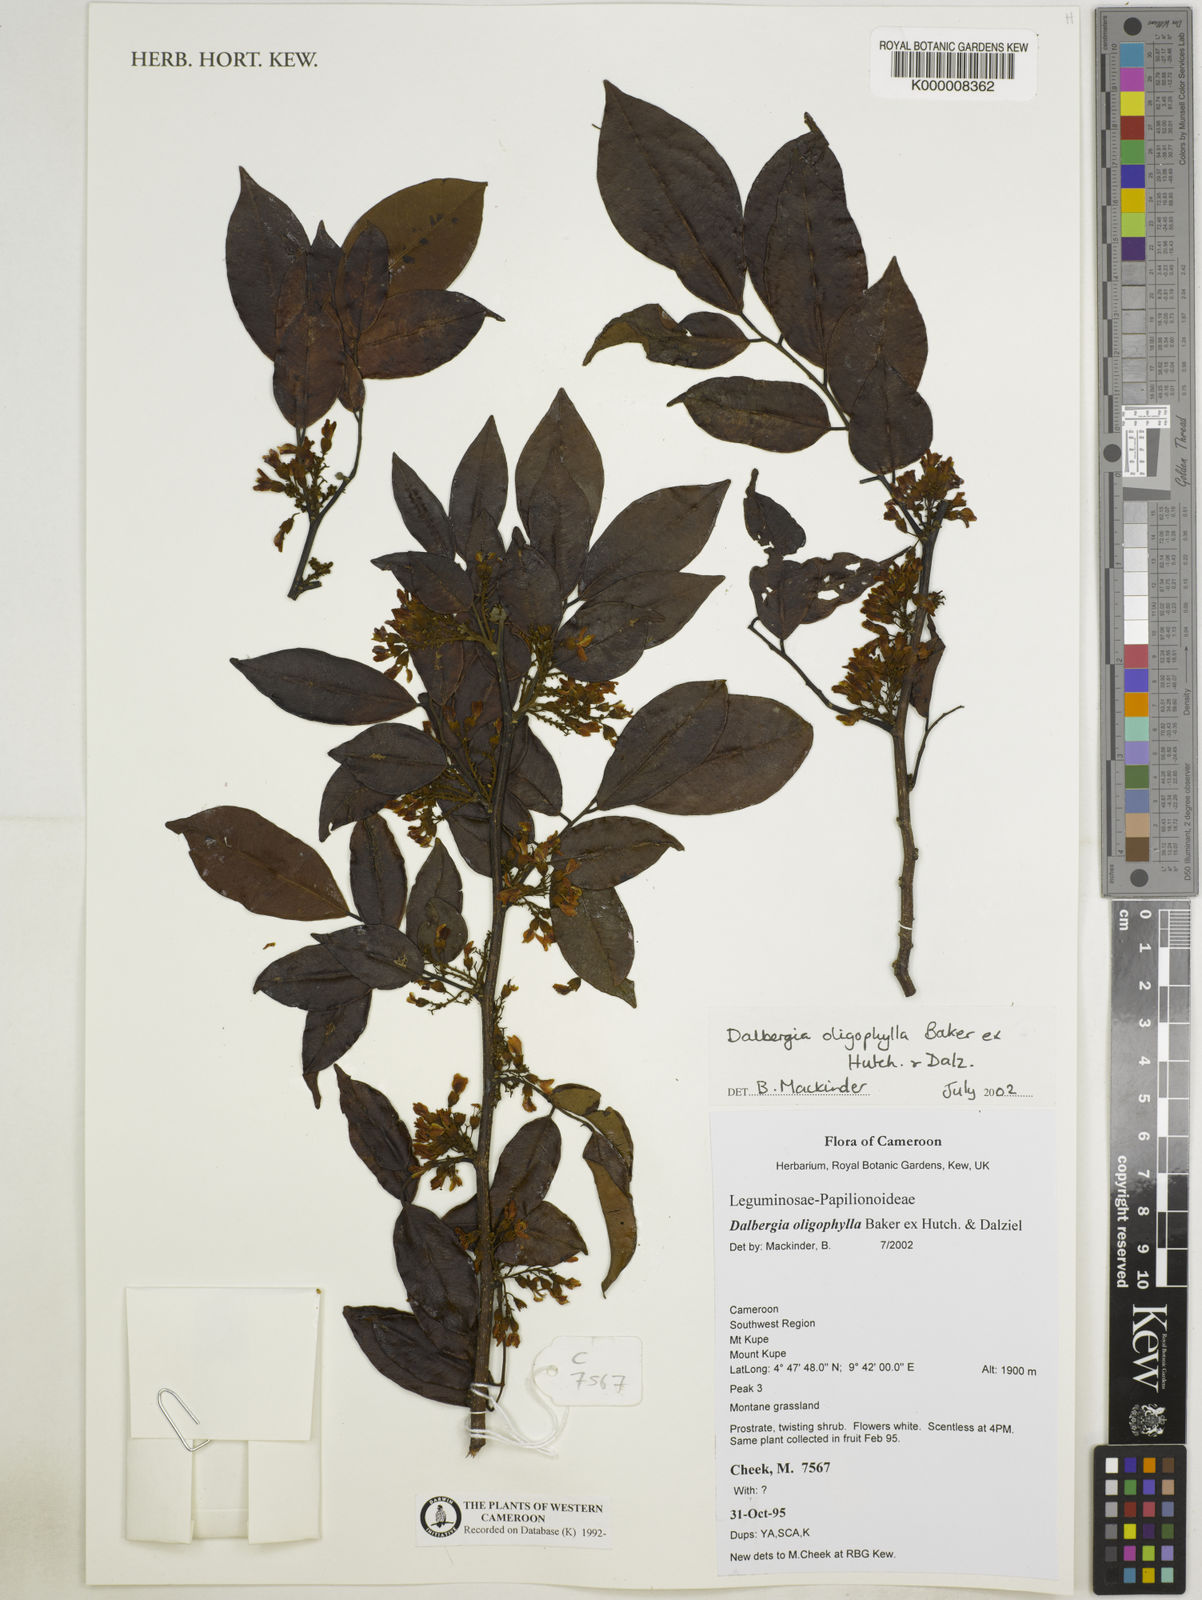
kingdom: Plantae
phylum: Tracheophyta
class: Magnoliopsida
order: Fabales
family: Fabaceae
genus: Dalbergia
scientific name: Dalbergia oligophylla
